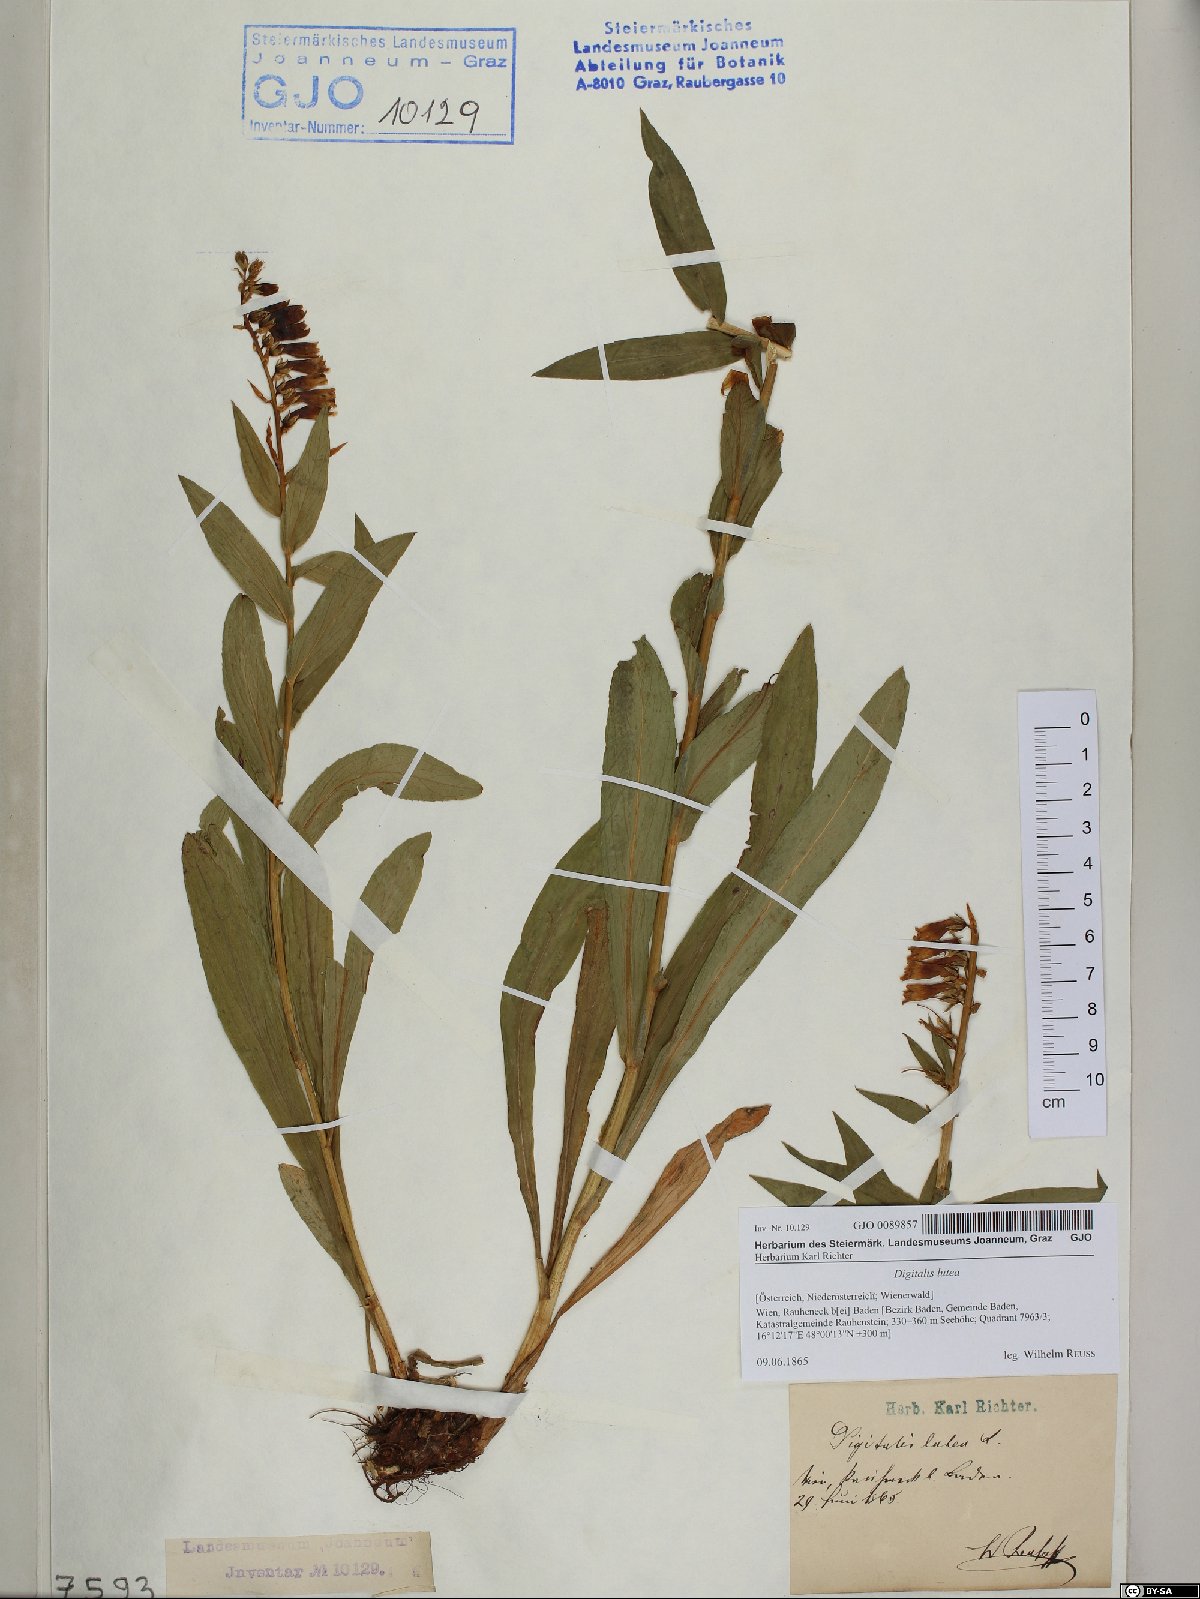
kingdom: Plantae
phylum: Tracheophyta
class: Magnoliopsida
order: Lamiales
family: Plantaginaceae
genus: Digitalis
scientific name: Digitalis lutea
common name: Straw foxglove
